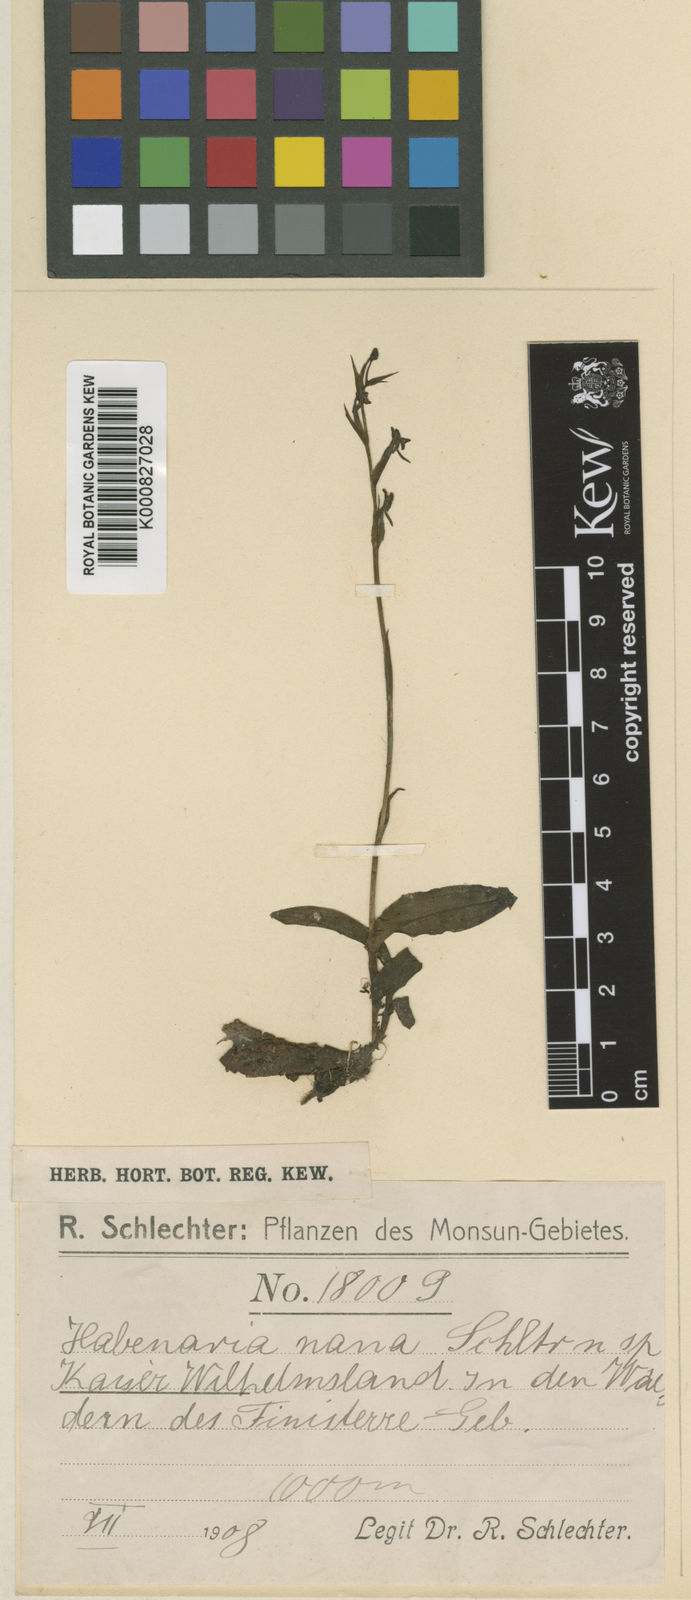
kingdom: Plantae
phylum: Tracheophyta
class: Liliopsida
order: Asparagales
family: Orchidaceae
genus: Peristylus
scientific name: Peristylus
